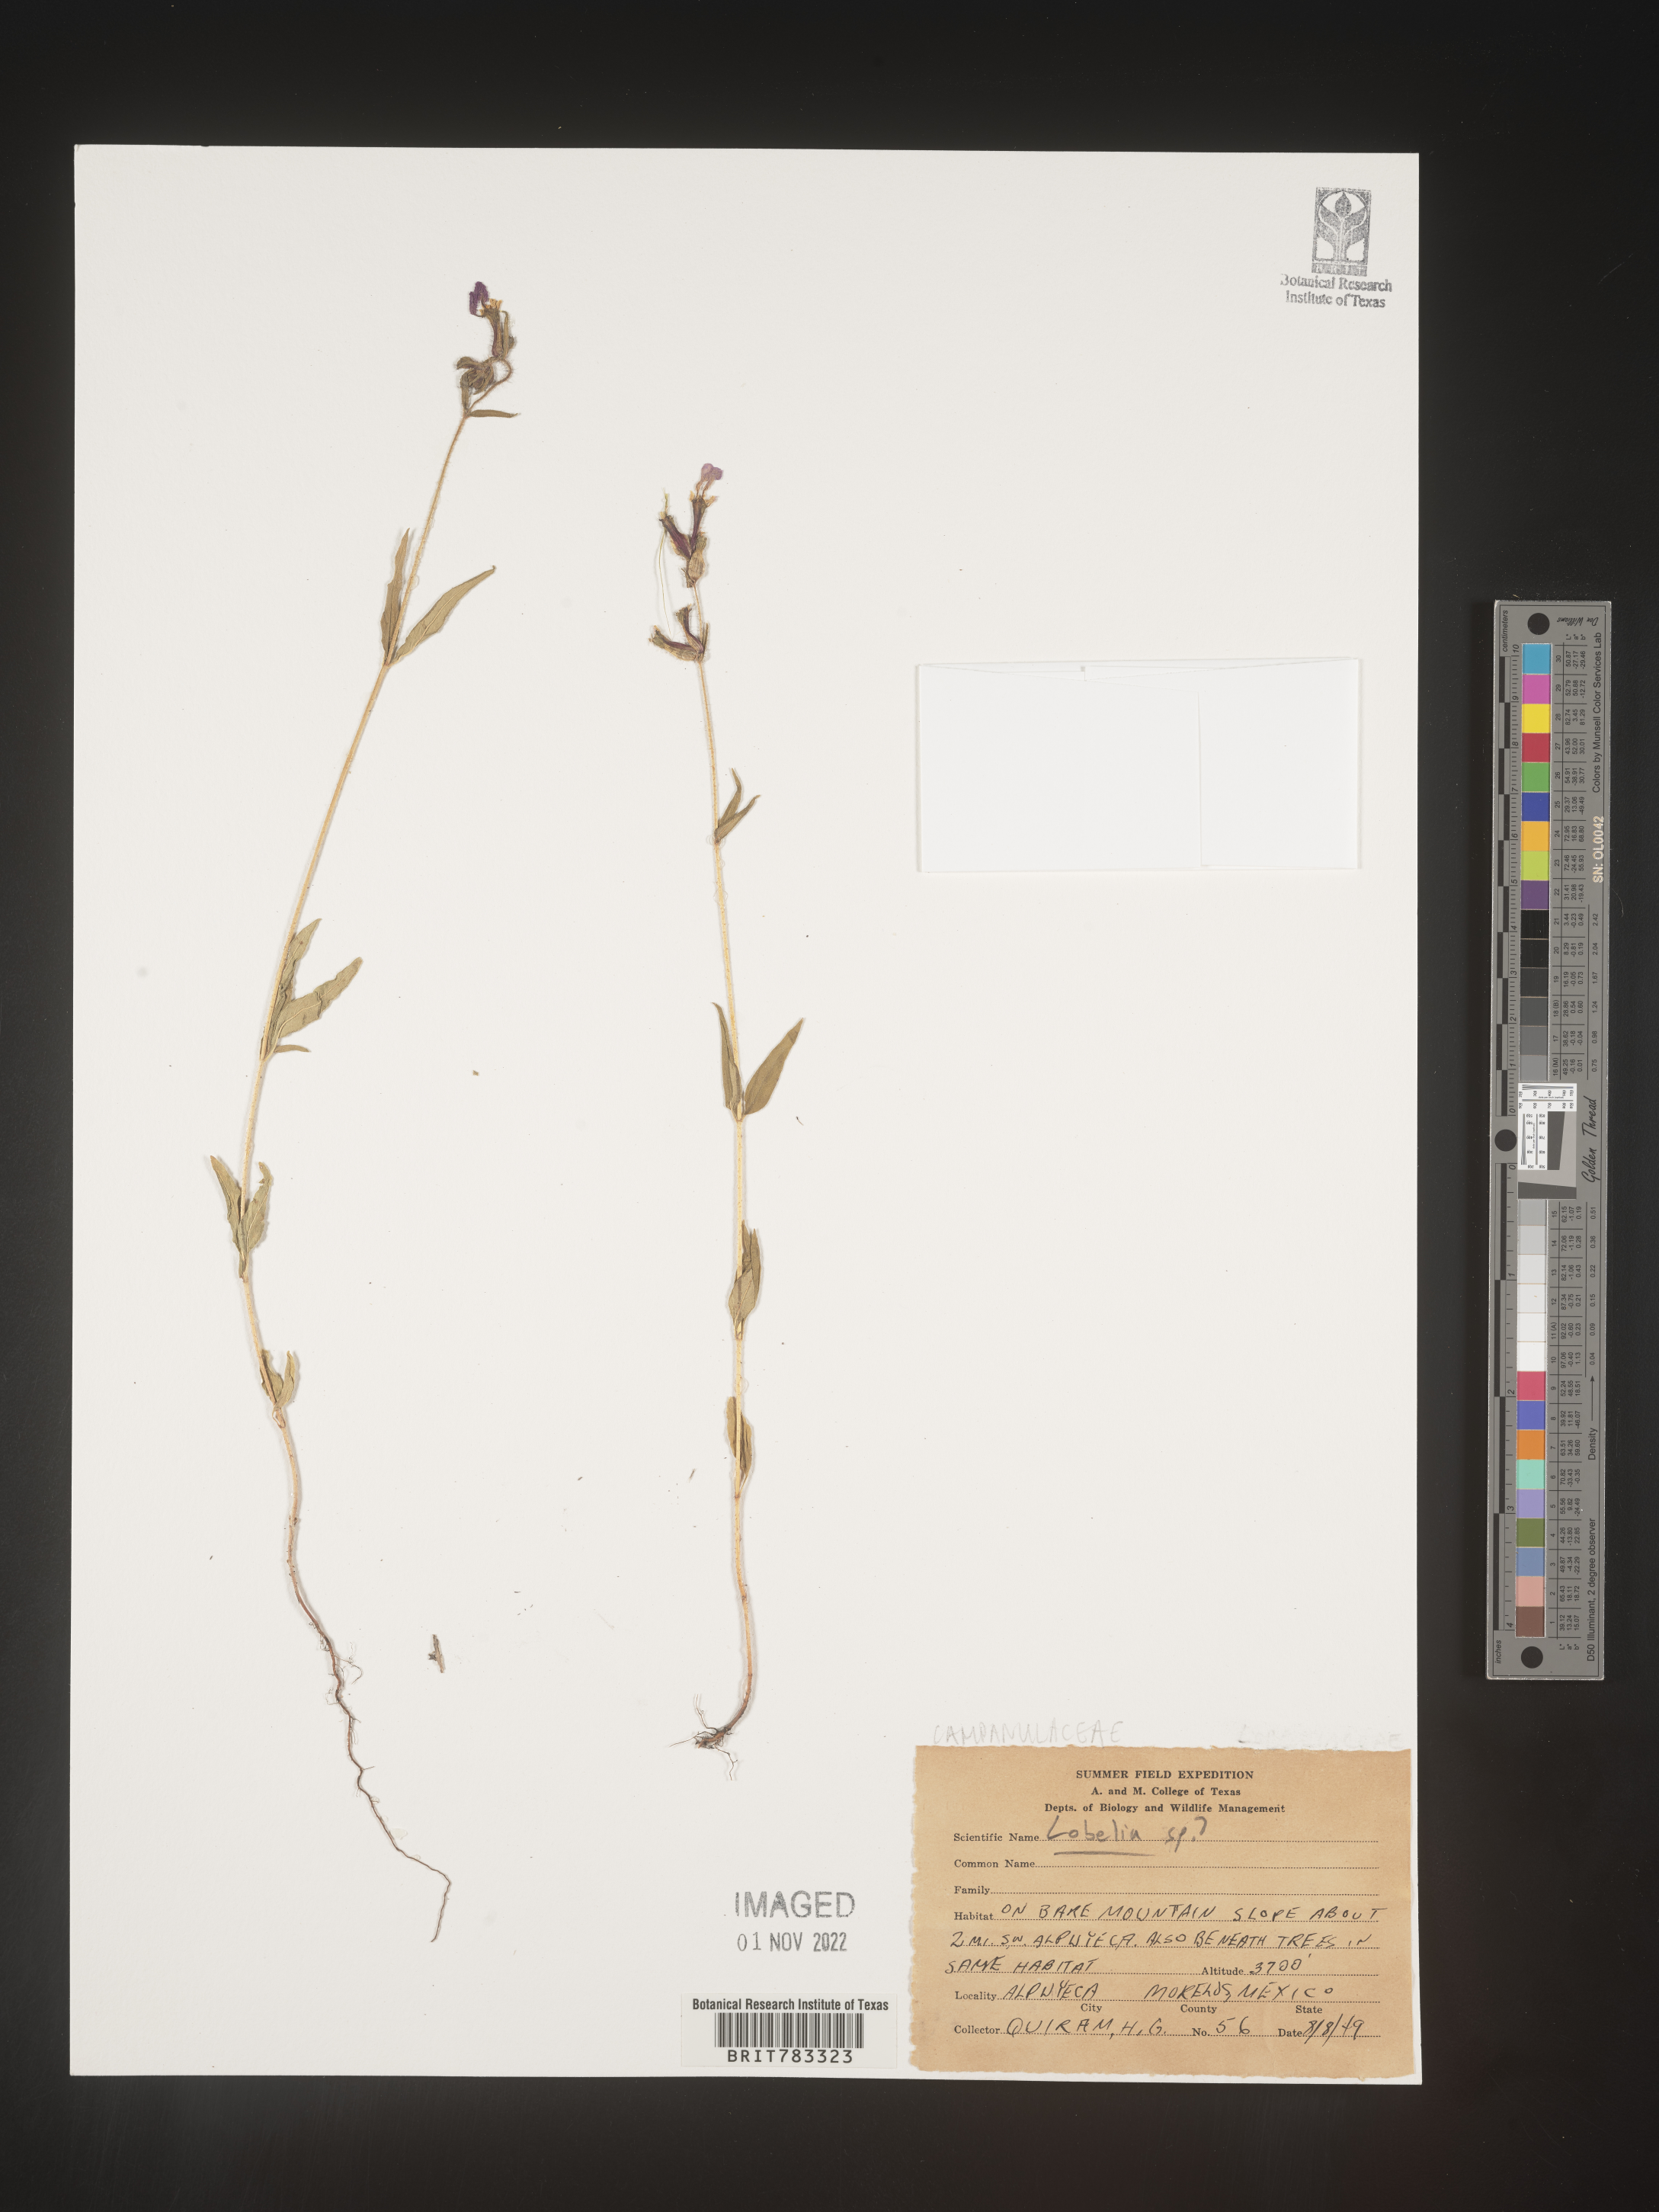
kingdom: Plantae
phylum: Tracheophyta
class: Magnoliopsida
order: Asterales
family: Campanulaceae
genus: Lobelia
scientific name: Lobelia
